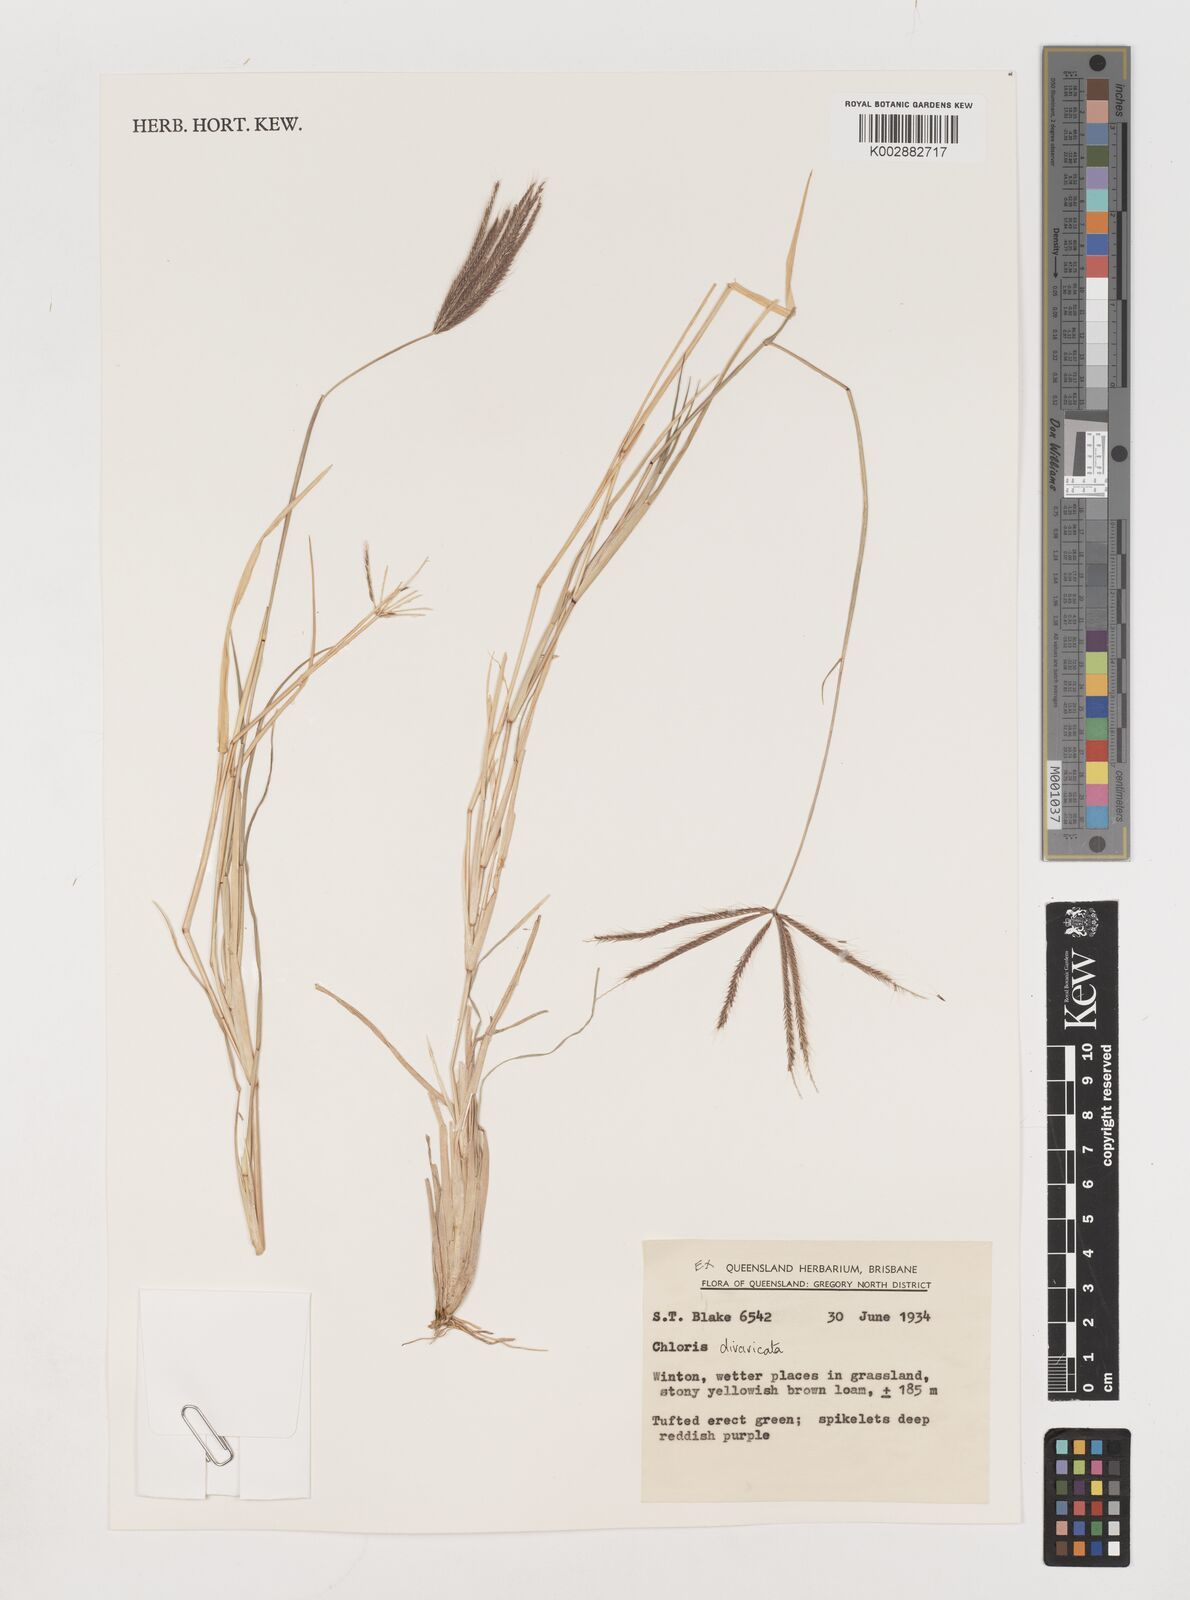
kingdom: Plantae
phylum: Tracheophyta
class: Liliopsida
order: Poales
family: Poaceae
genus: Chloris
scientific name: Chloris divaricata
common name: Spreading windmill grass
